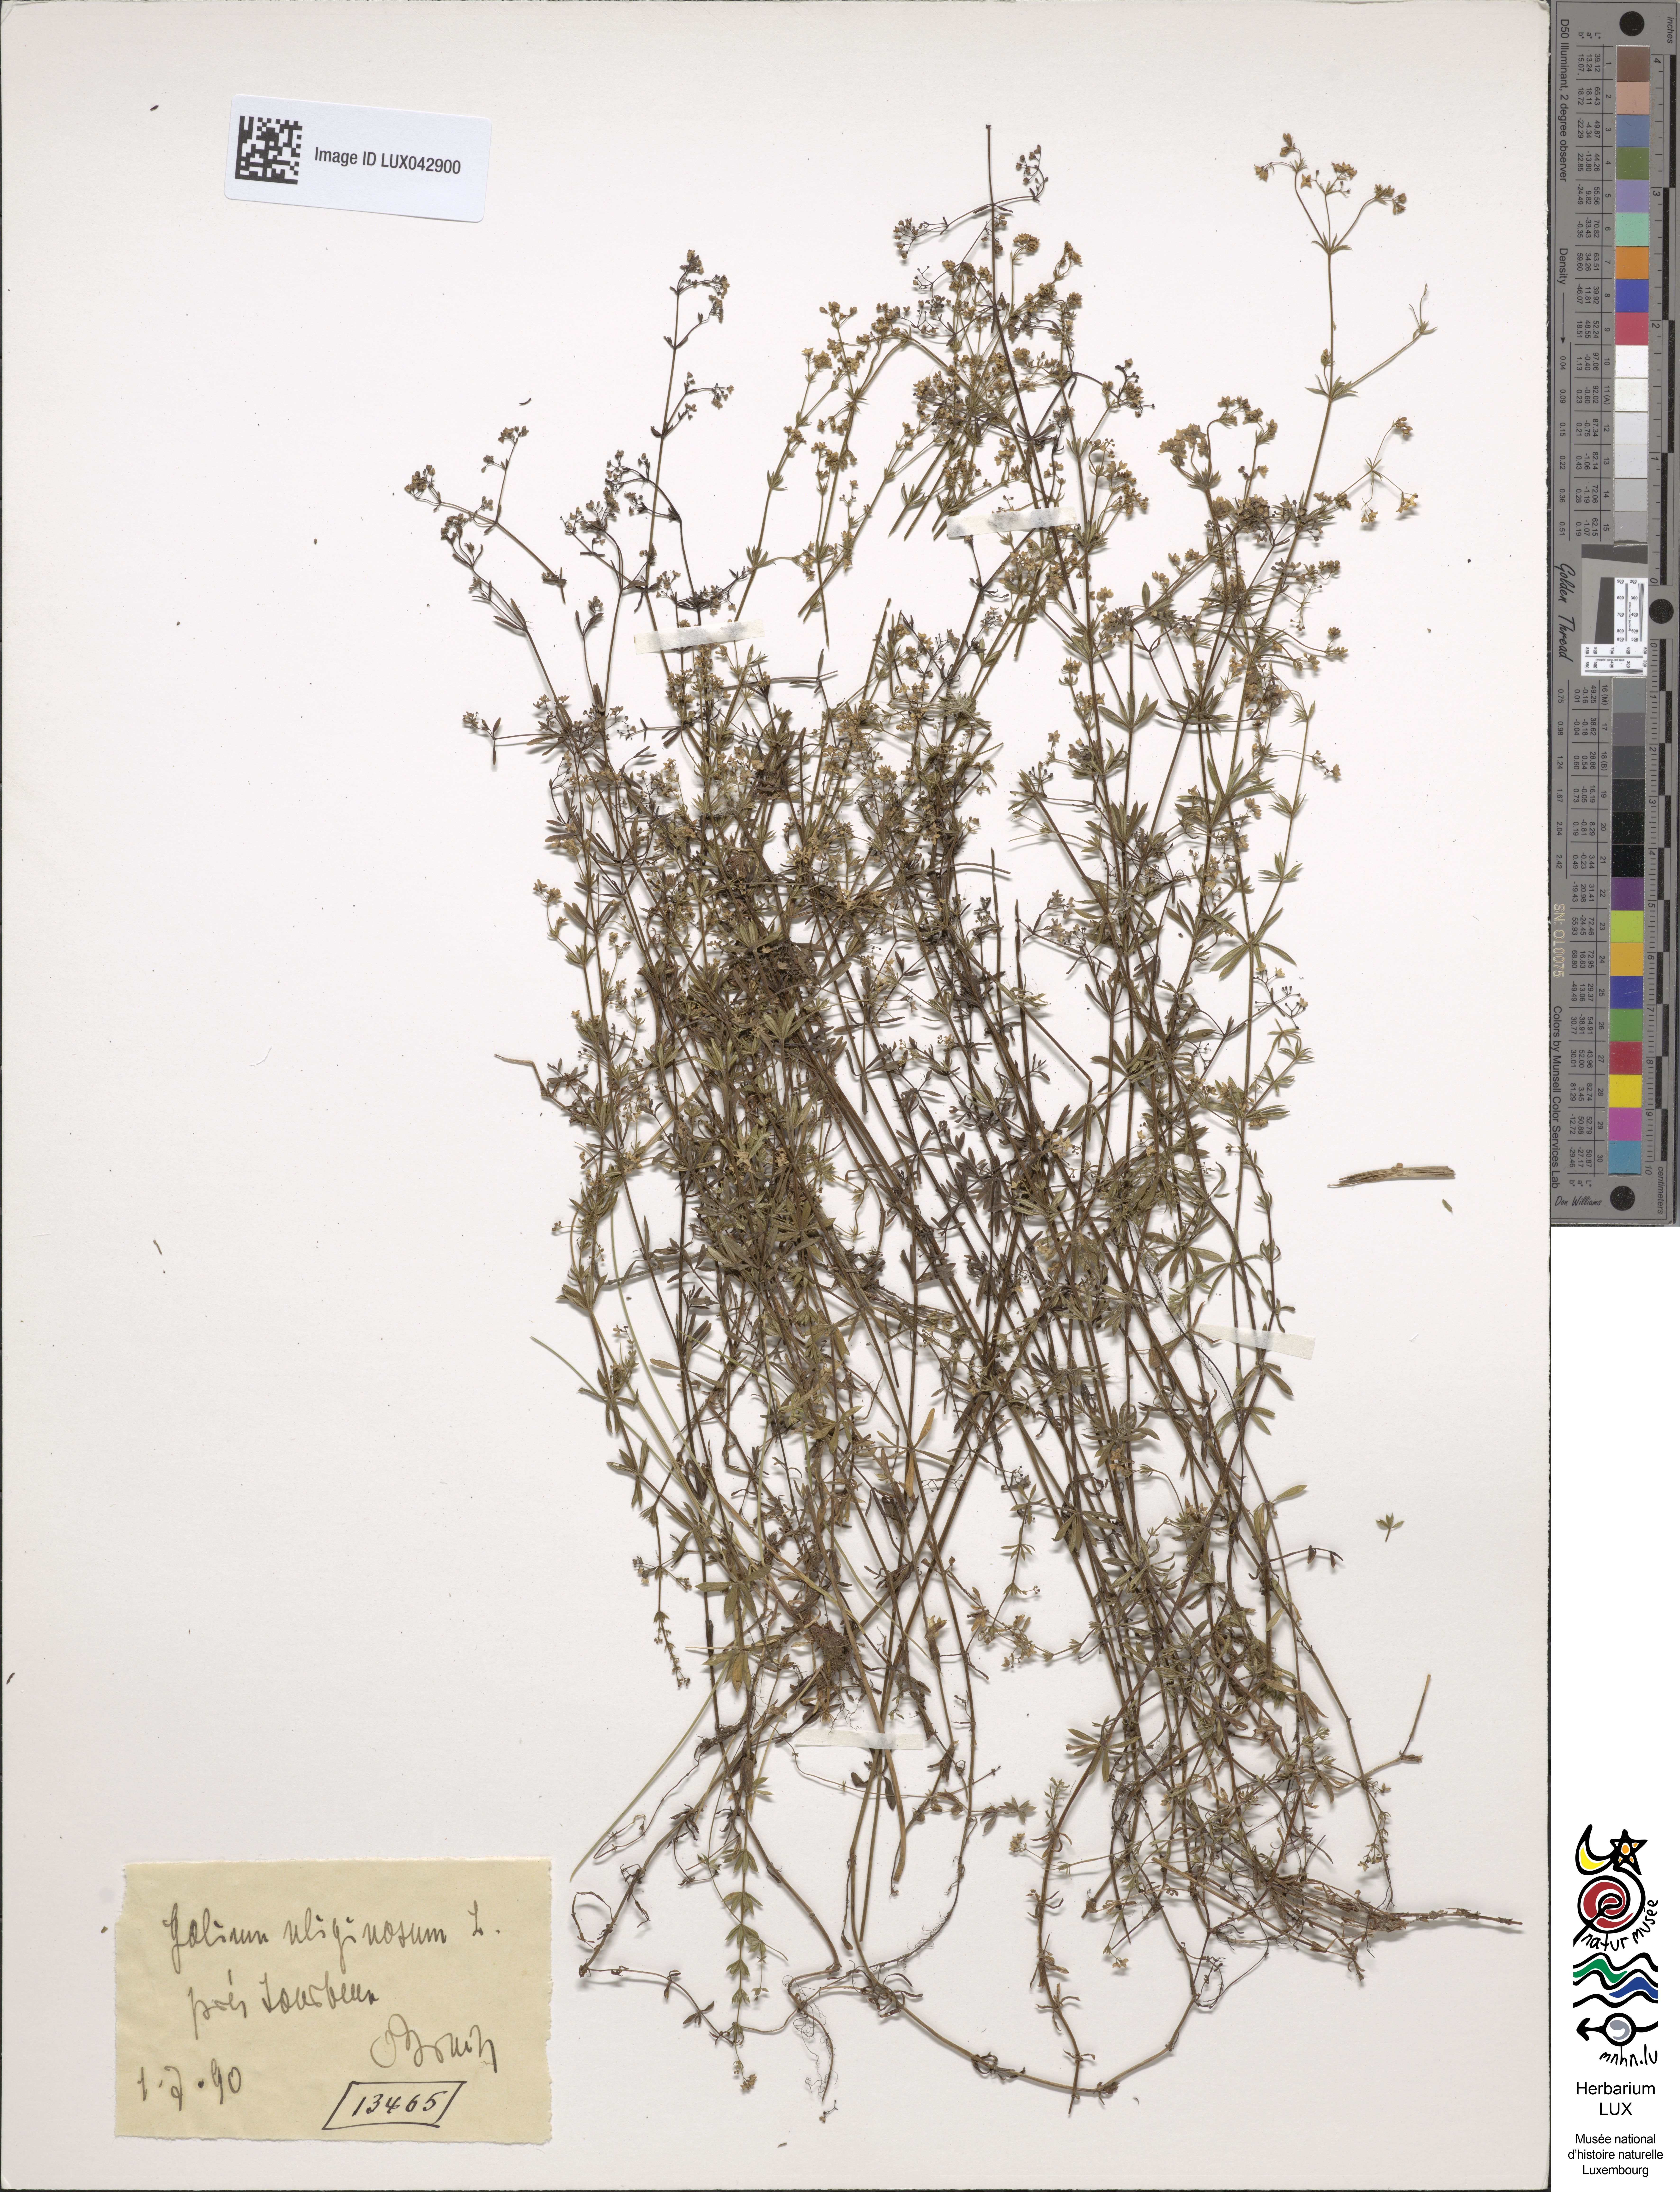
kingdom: Plantae
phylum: Tracheophyta
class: Magnoliopsida
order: Gentianales
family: Rubiaceae
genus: Galium
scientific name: Galium uliginosum
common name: Fen bedstraw
